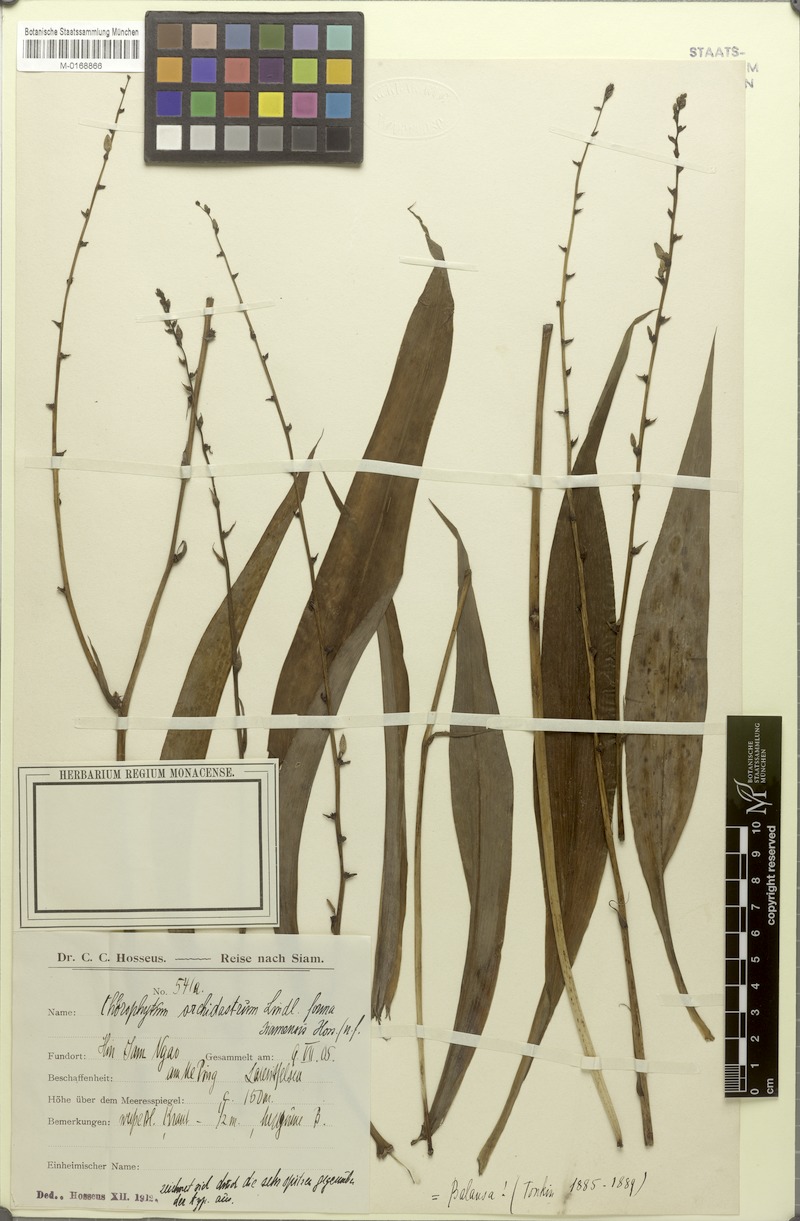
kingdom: Plantae
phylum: Tracheophyta
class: Liliopsida
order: Asparagales
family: Asparagaceae
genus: Chlorophytum
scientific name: Chlorophytum orchidastrum
